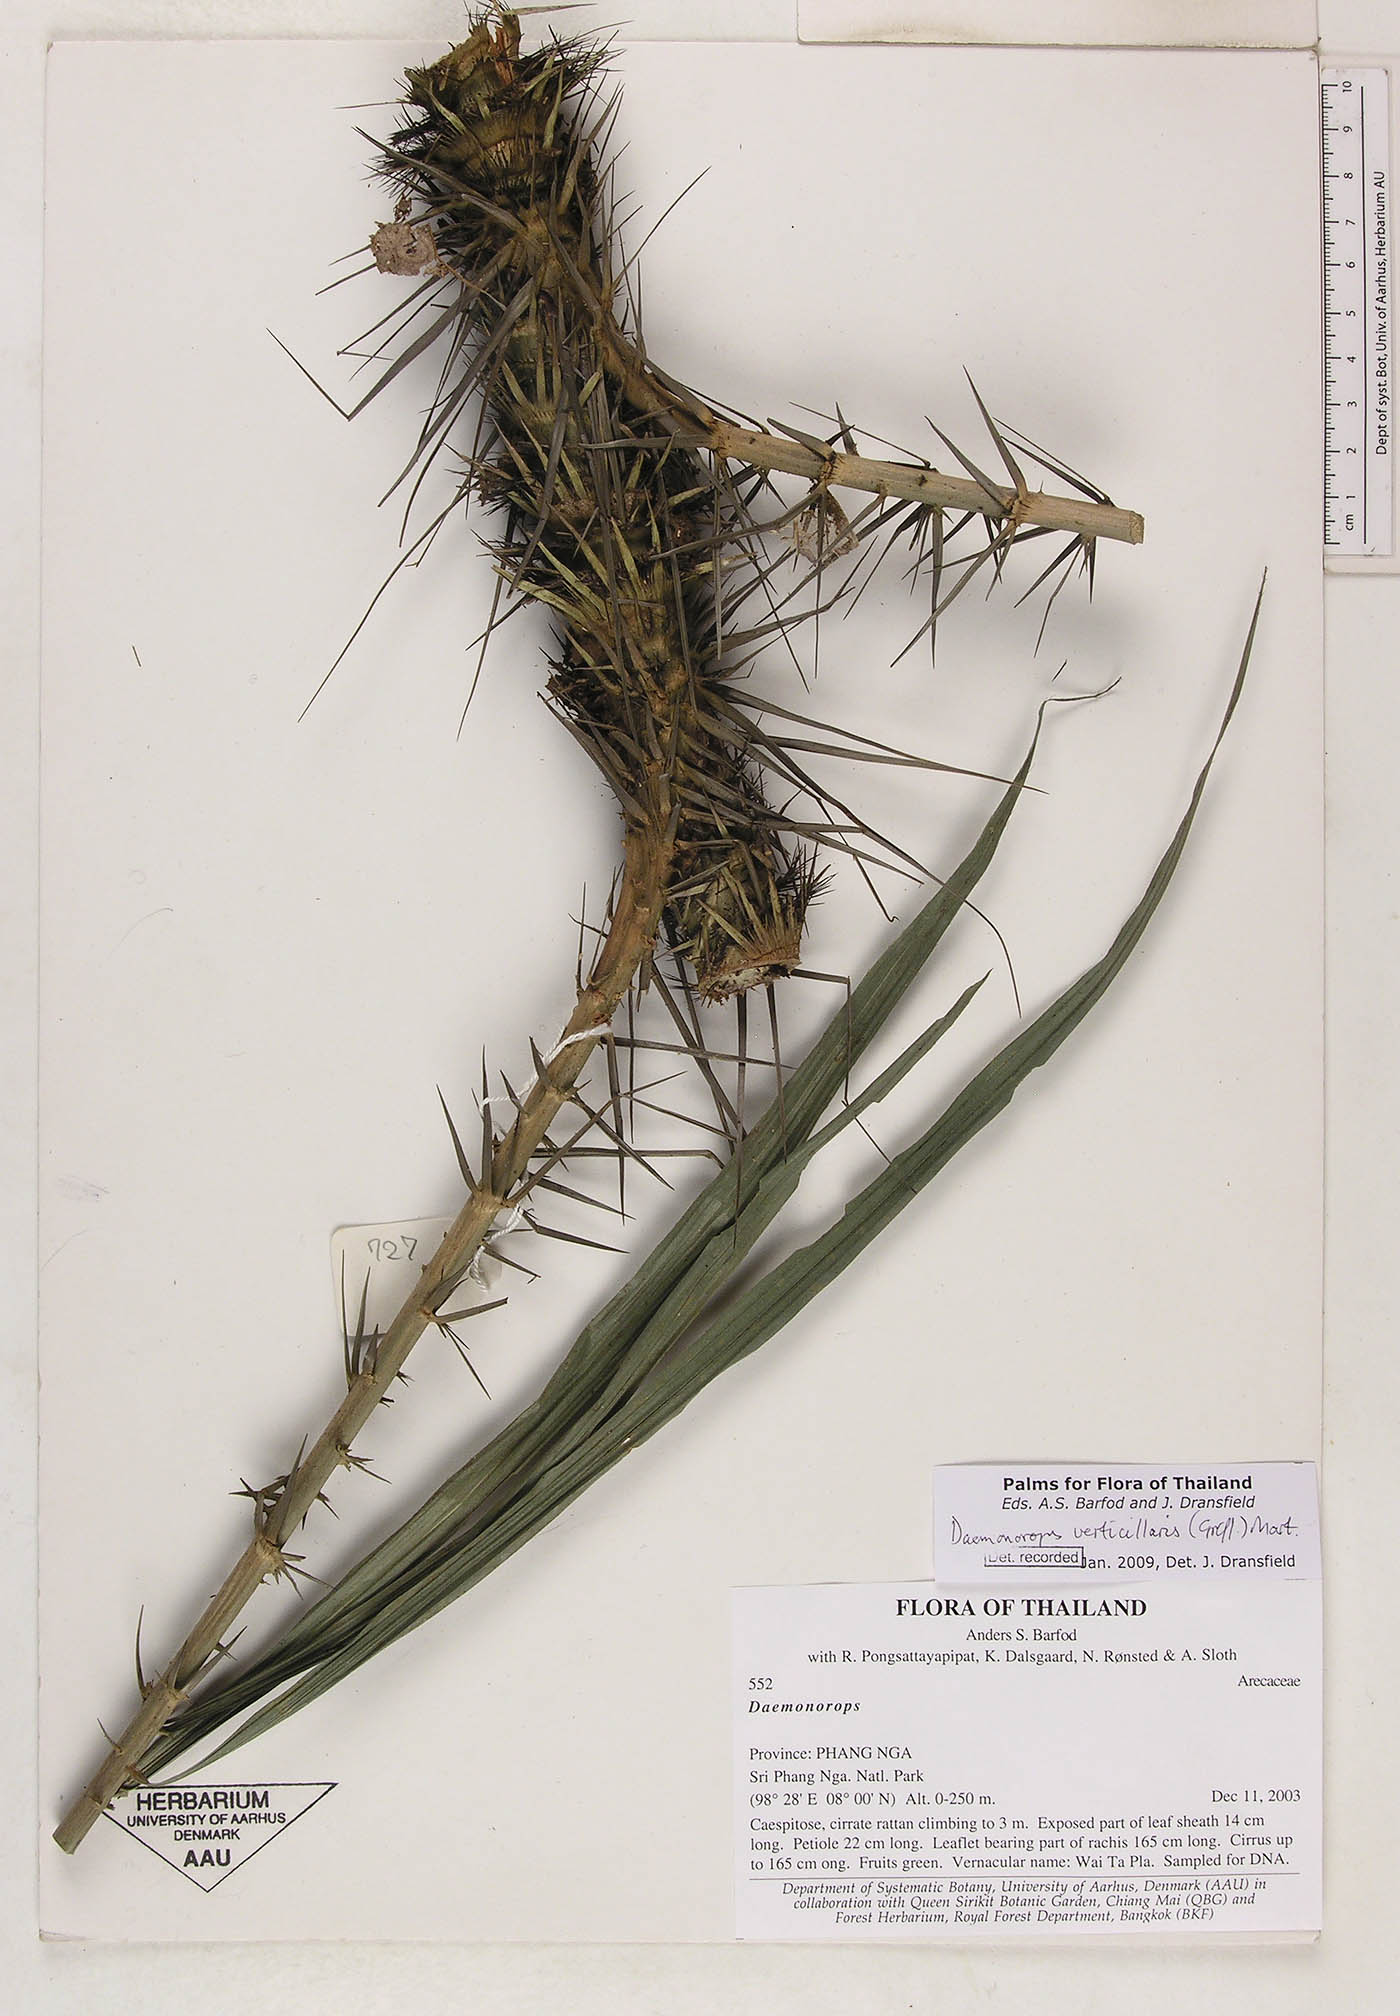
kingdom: Plantae
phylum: Tracheophyta
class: Liliopsida
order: Arecales
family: Arecaceae
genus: Calamus
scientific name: Calamus verticillaris
